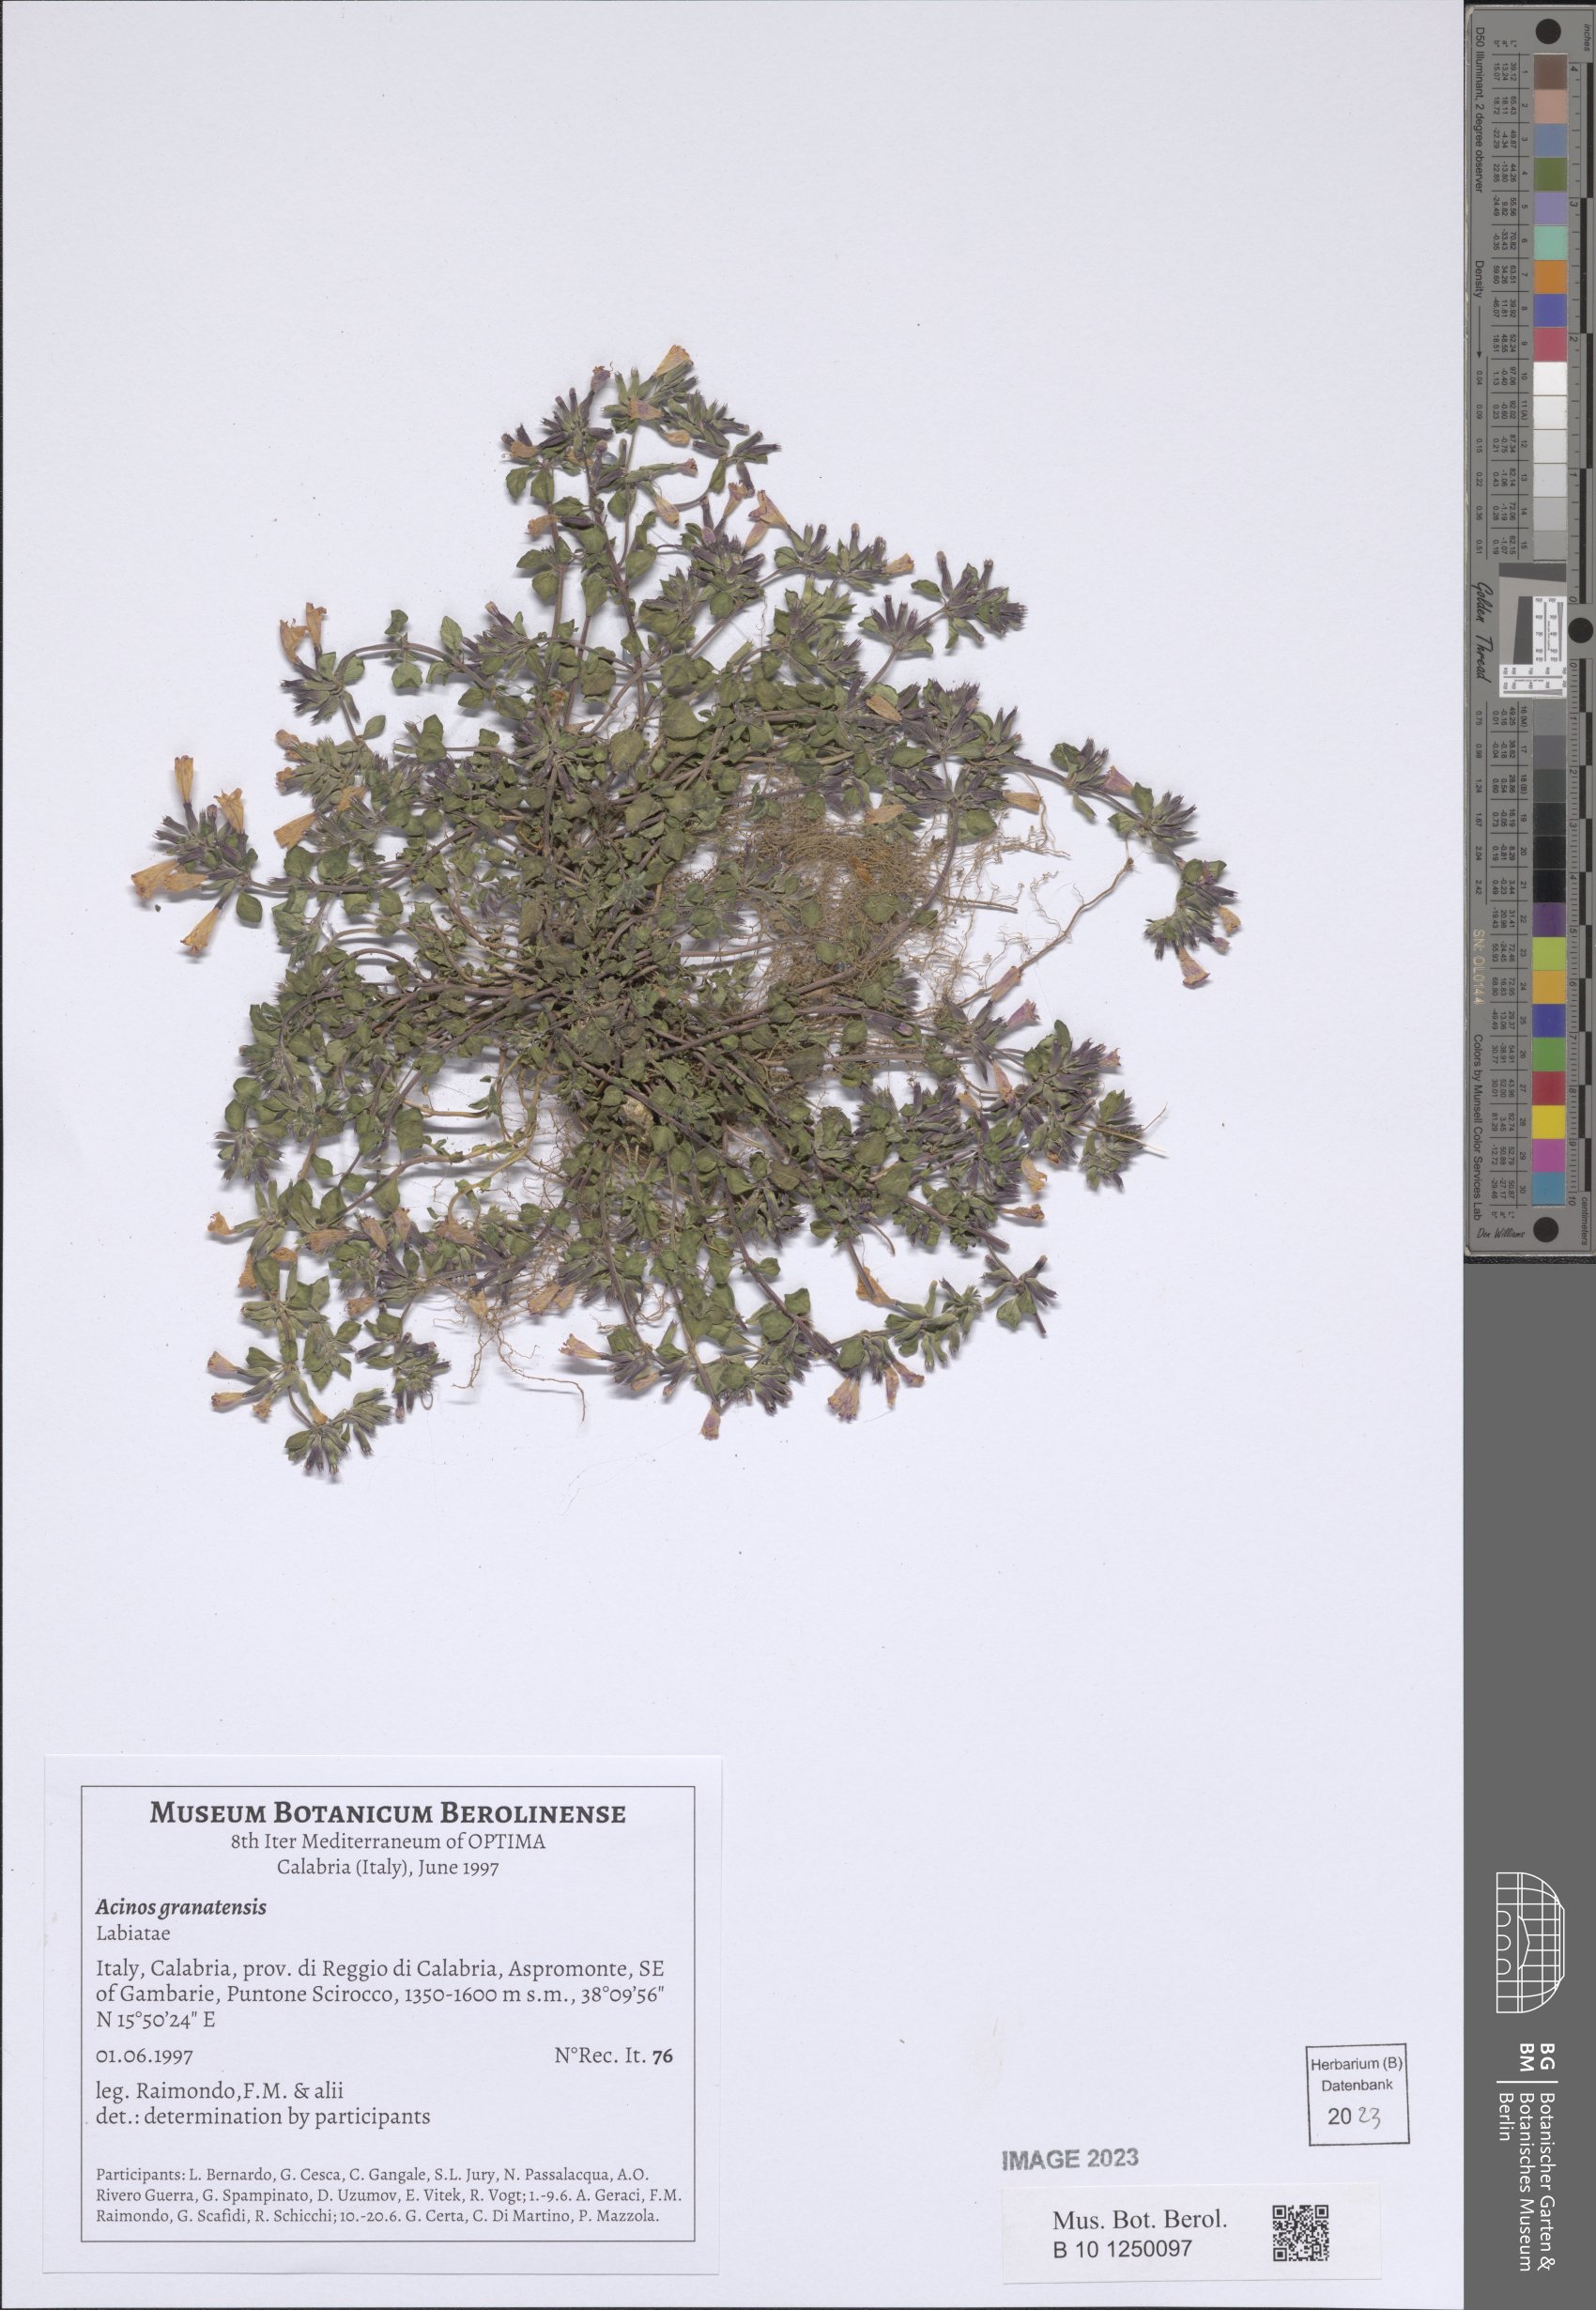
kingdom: Plantae
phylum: Tracheophyta
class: Magnoliopsida
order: Lamiales
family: Lamiaceae
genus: Clinopodium
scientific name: Clinopodium alpinum
